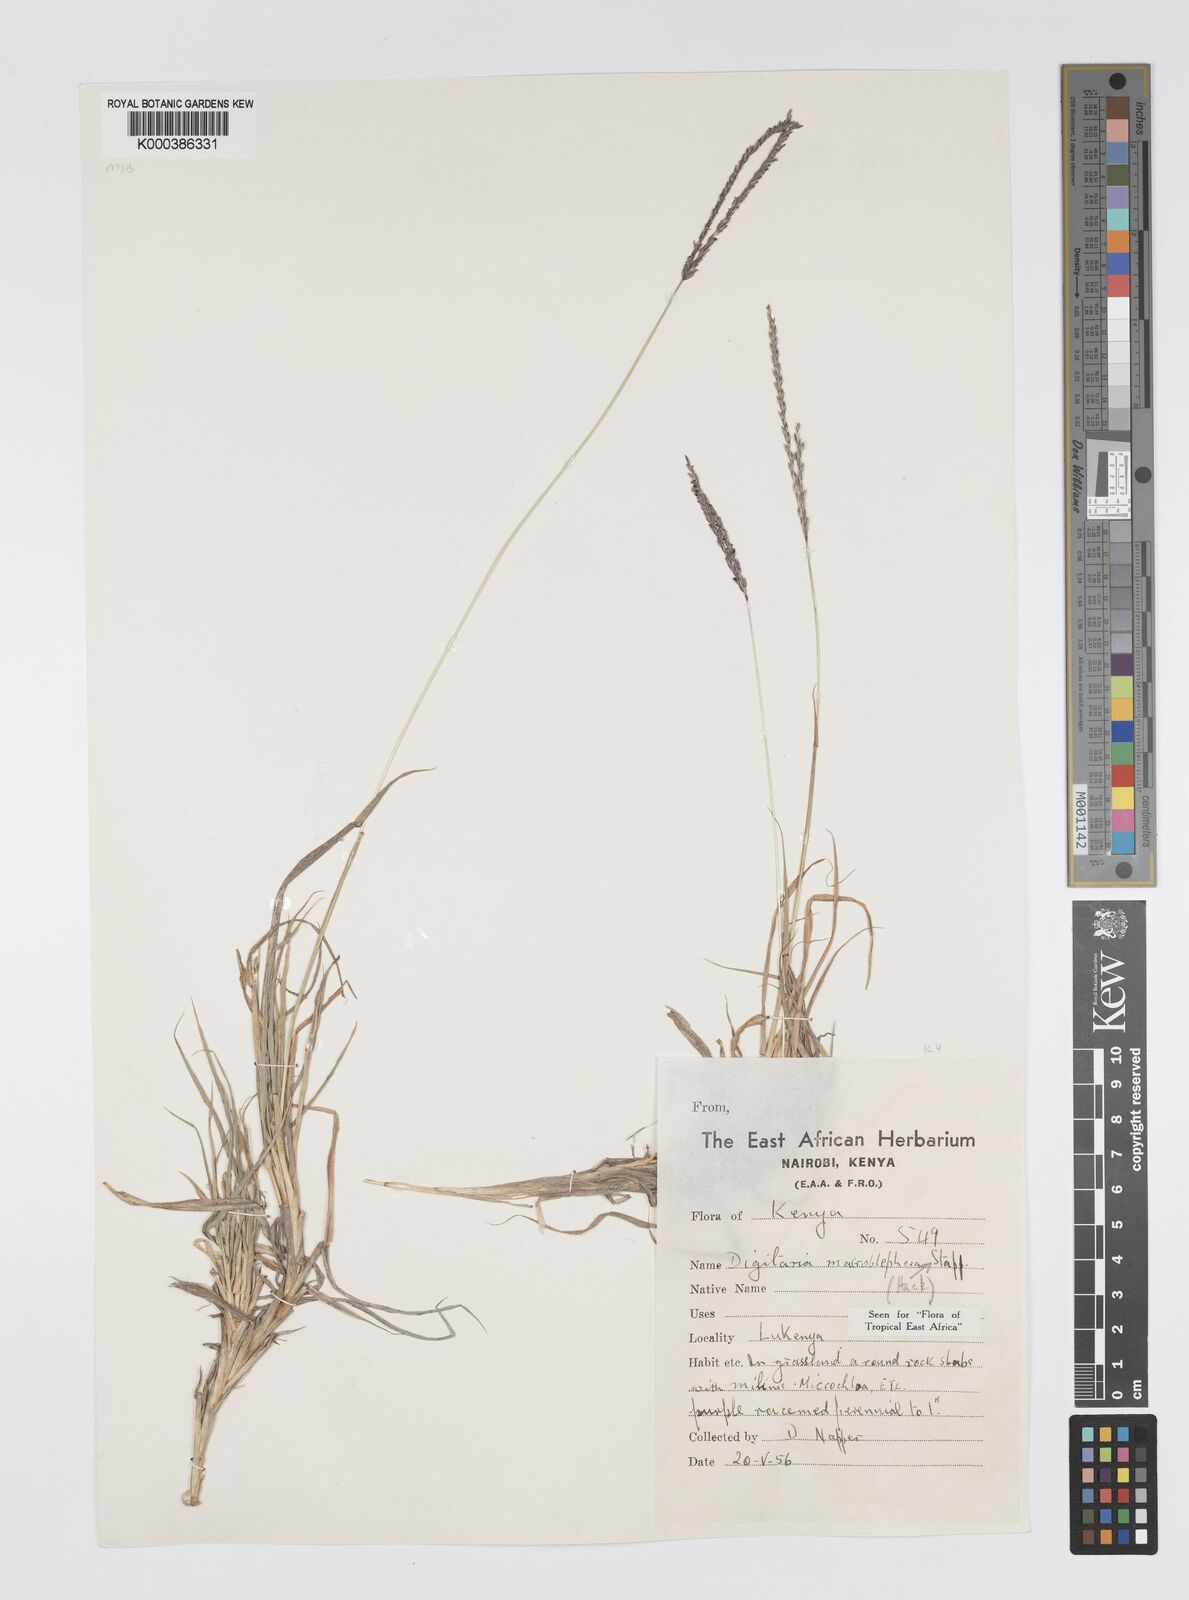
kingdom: Plantae
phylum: Tracheophyta
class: Liliopsida
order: Poales
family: Poaceae
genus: Digitaria
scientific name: Digitaria macroblephara
